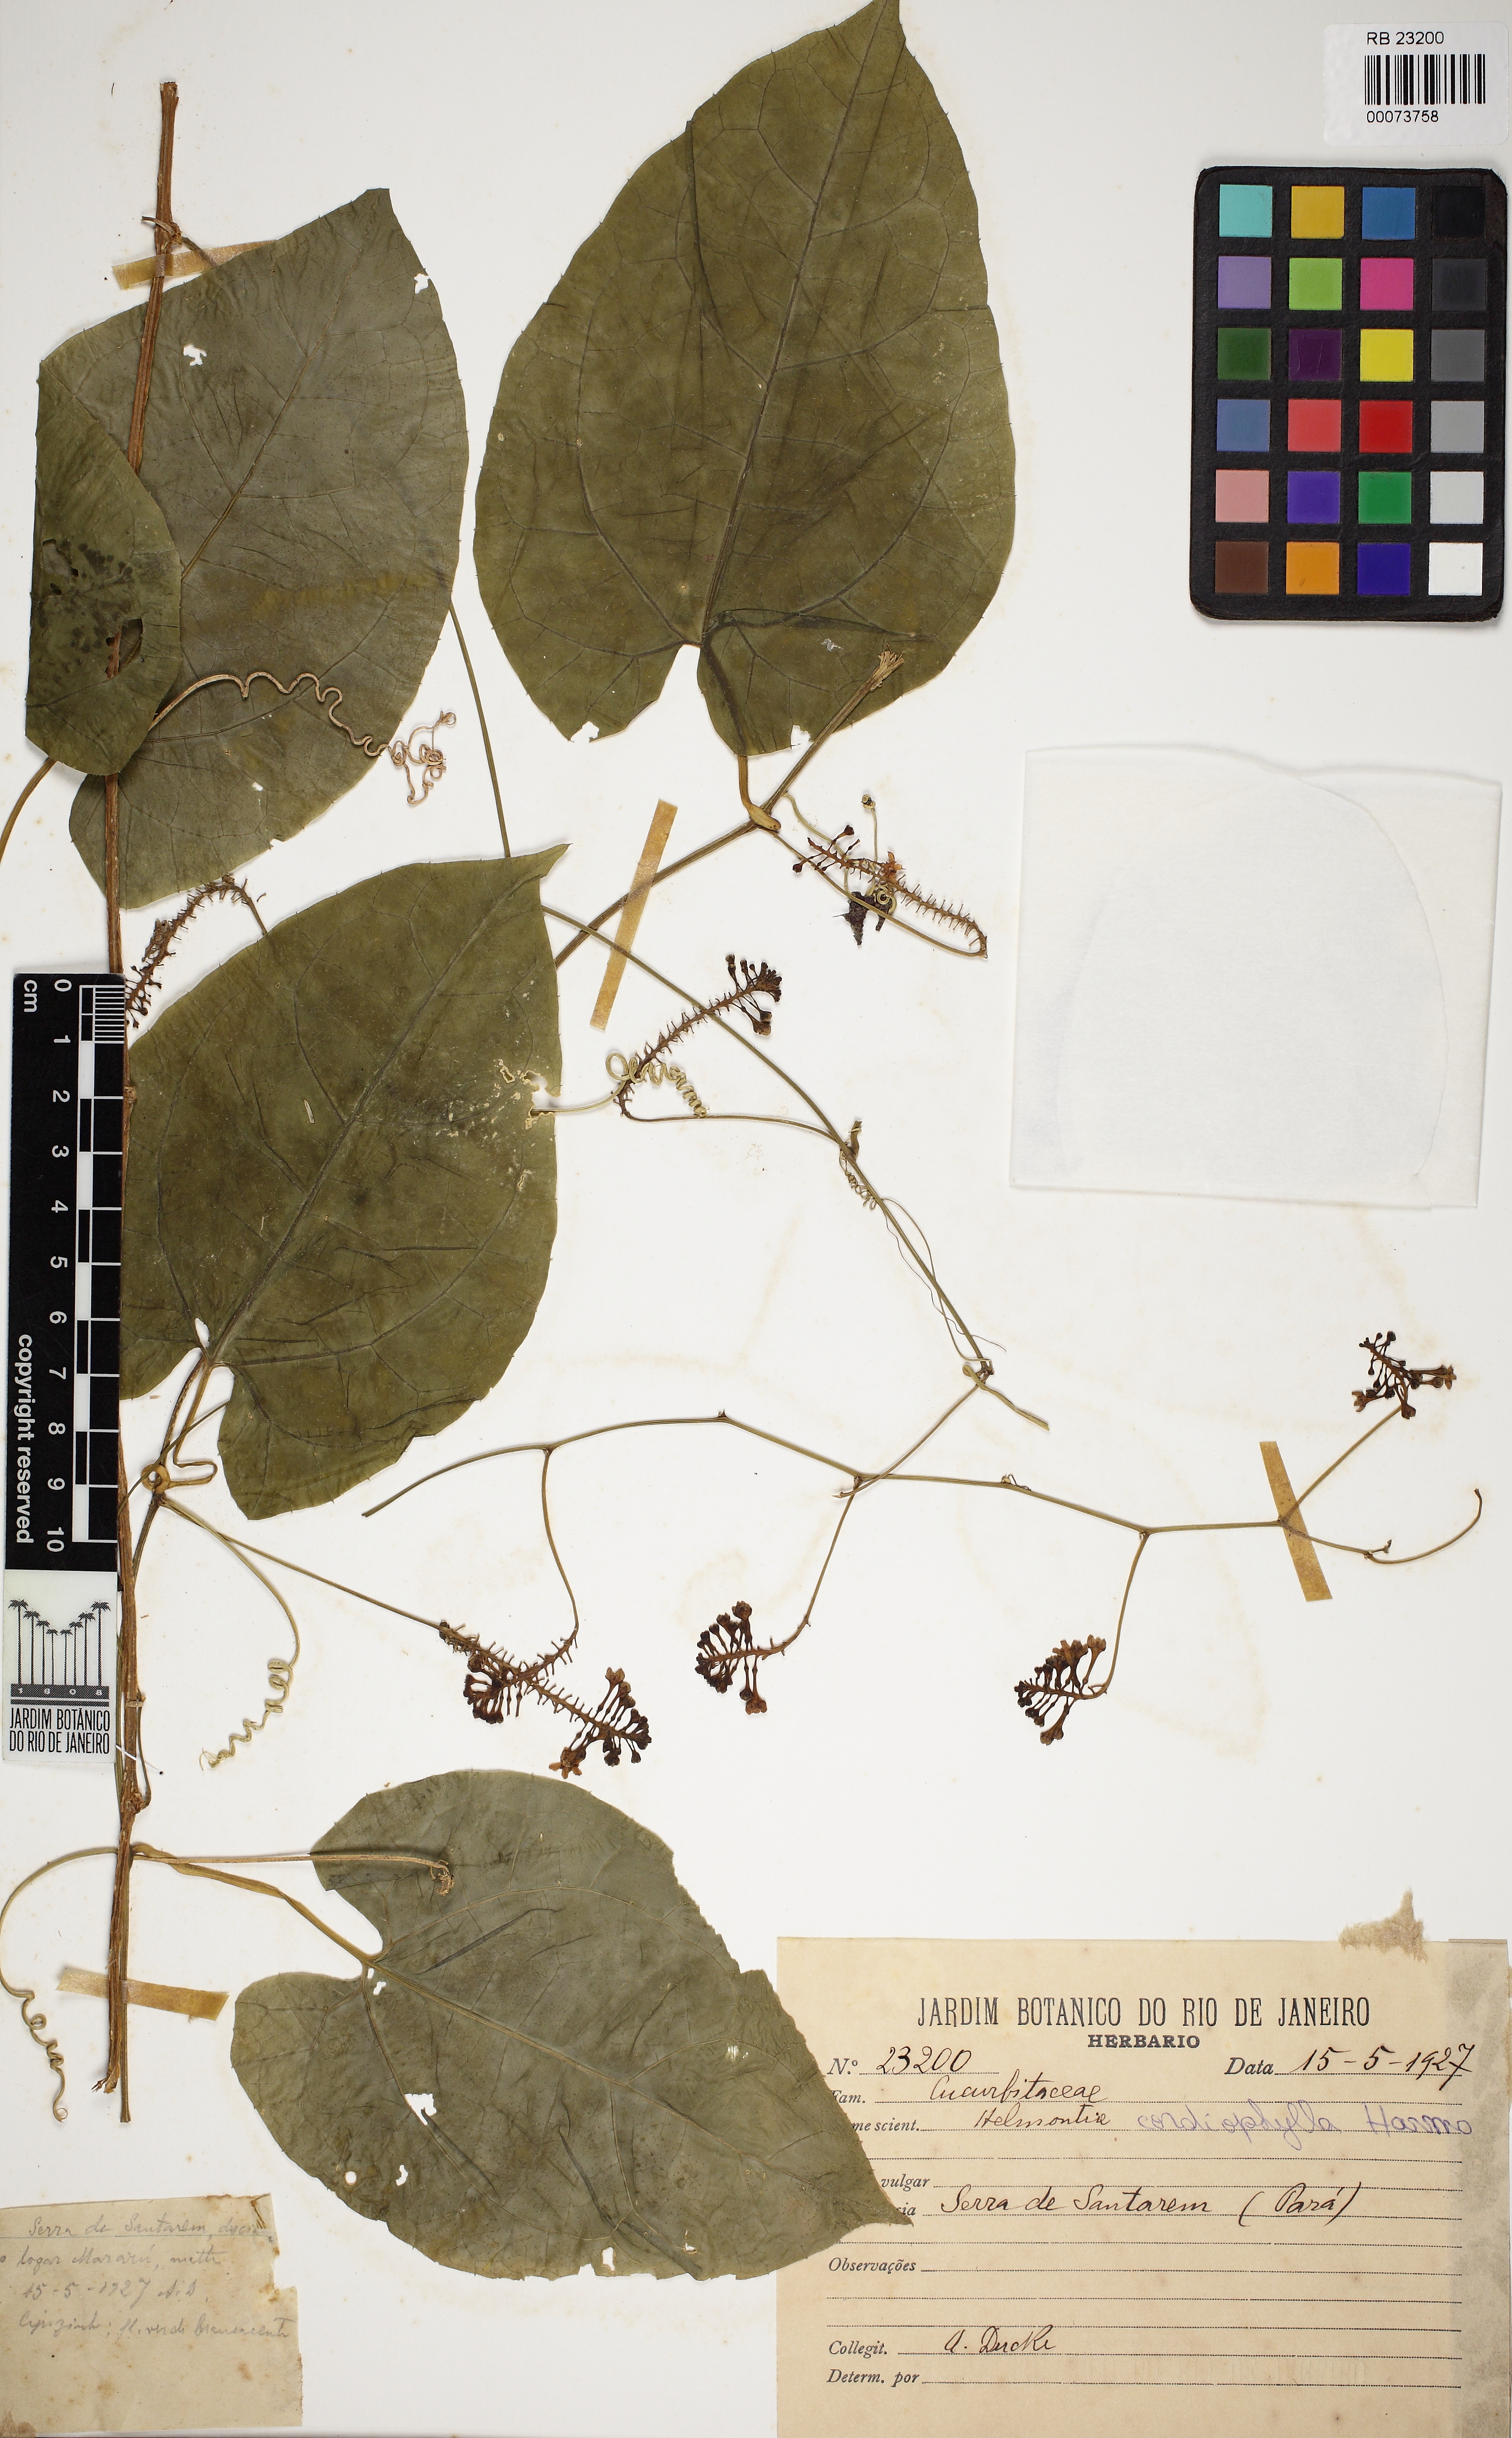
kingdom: Plantae
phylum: Tracheophyta
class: Magnoliopsida
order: Cucurbitales
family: Cucurbitaceae
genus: Helmontia
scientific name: Helmontia cardiophylla
